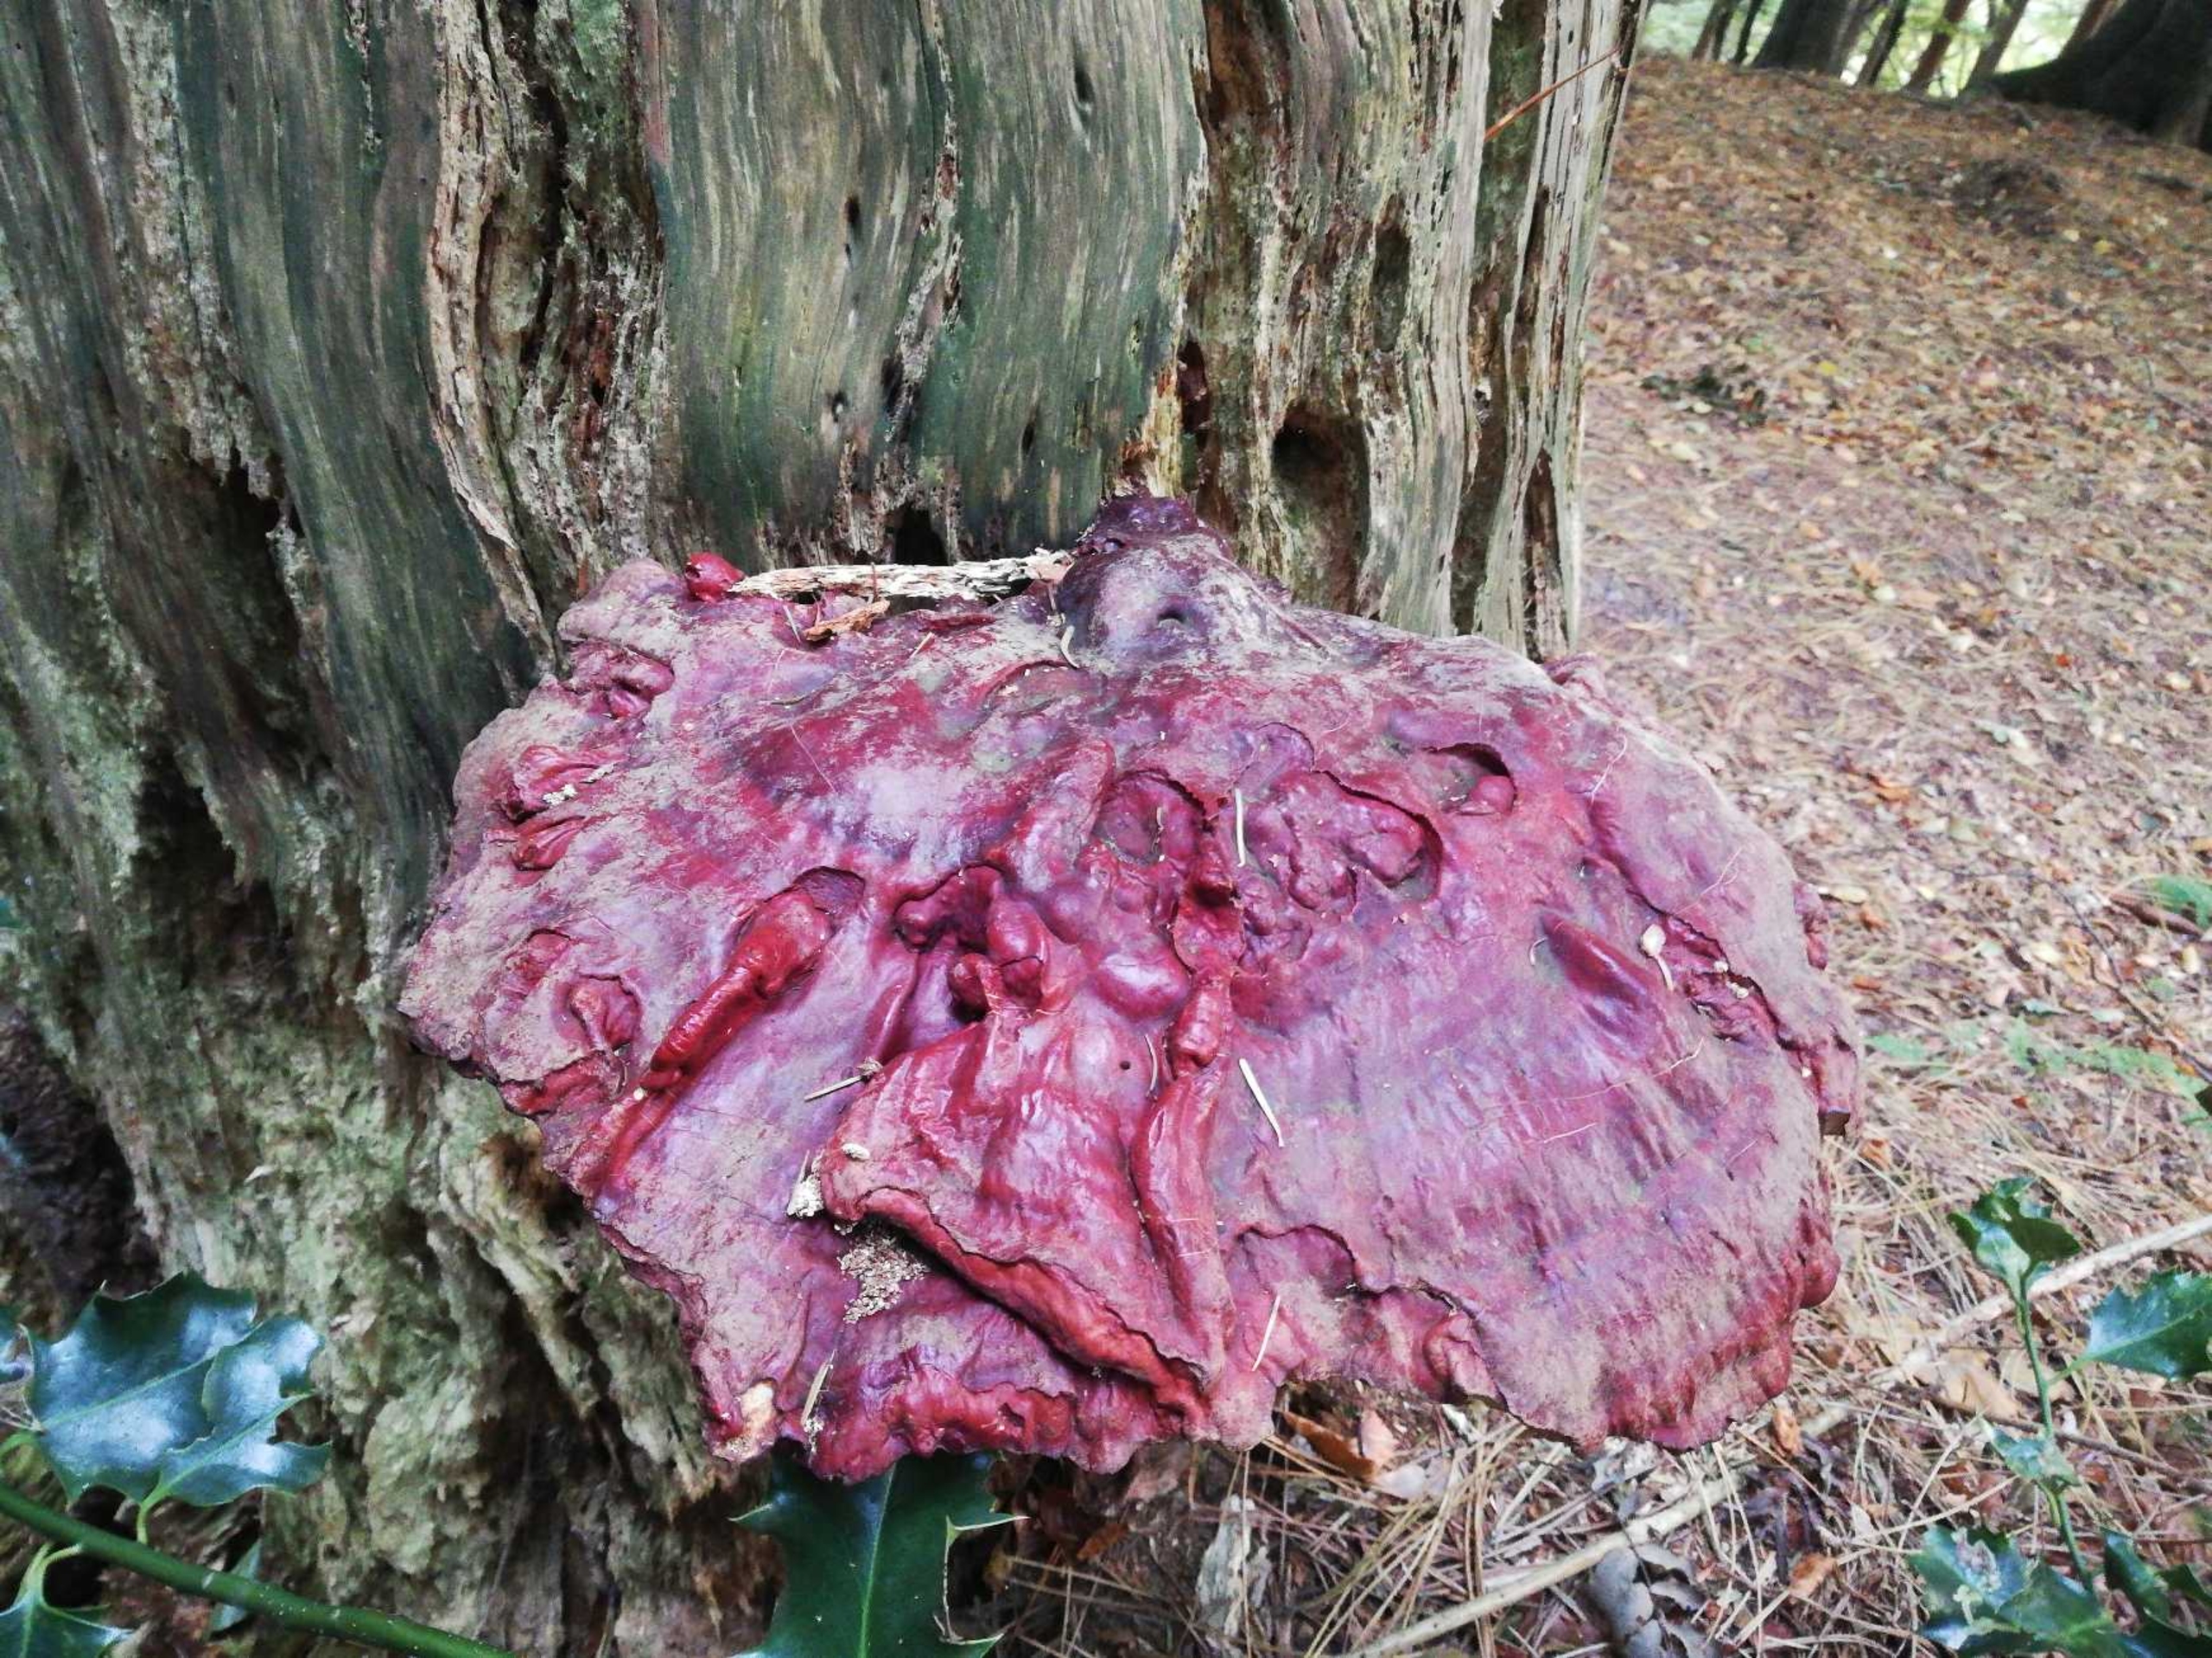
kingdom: Fungi
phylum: Basidiomycota
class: Agaricomycetes
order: Polyporales
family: Polyporaceae
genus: Ganoderma
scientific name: Ganoderma lucidum
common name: Skinnende lakporesvamp
